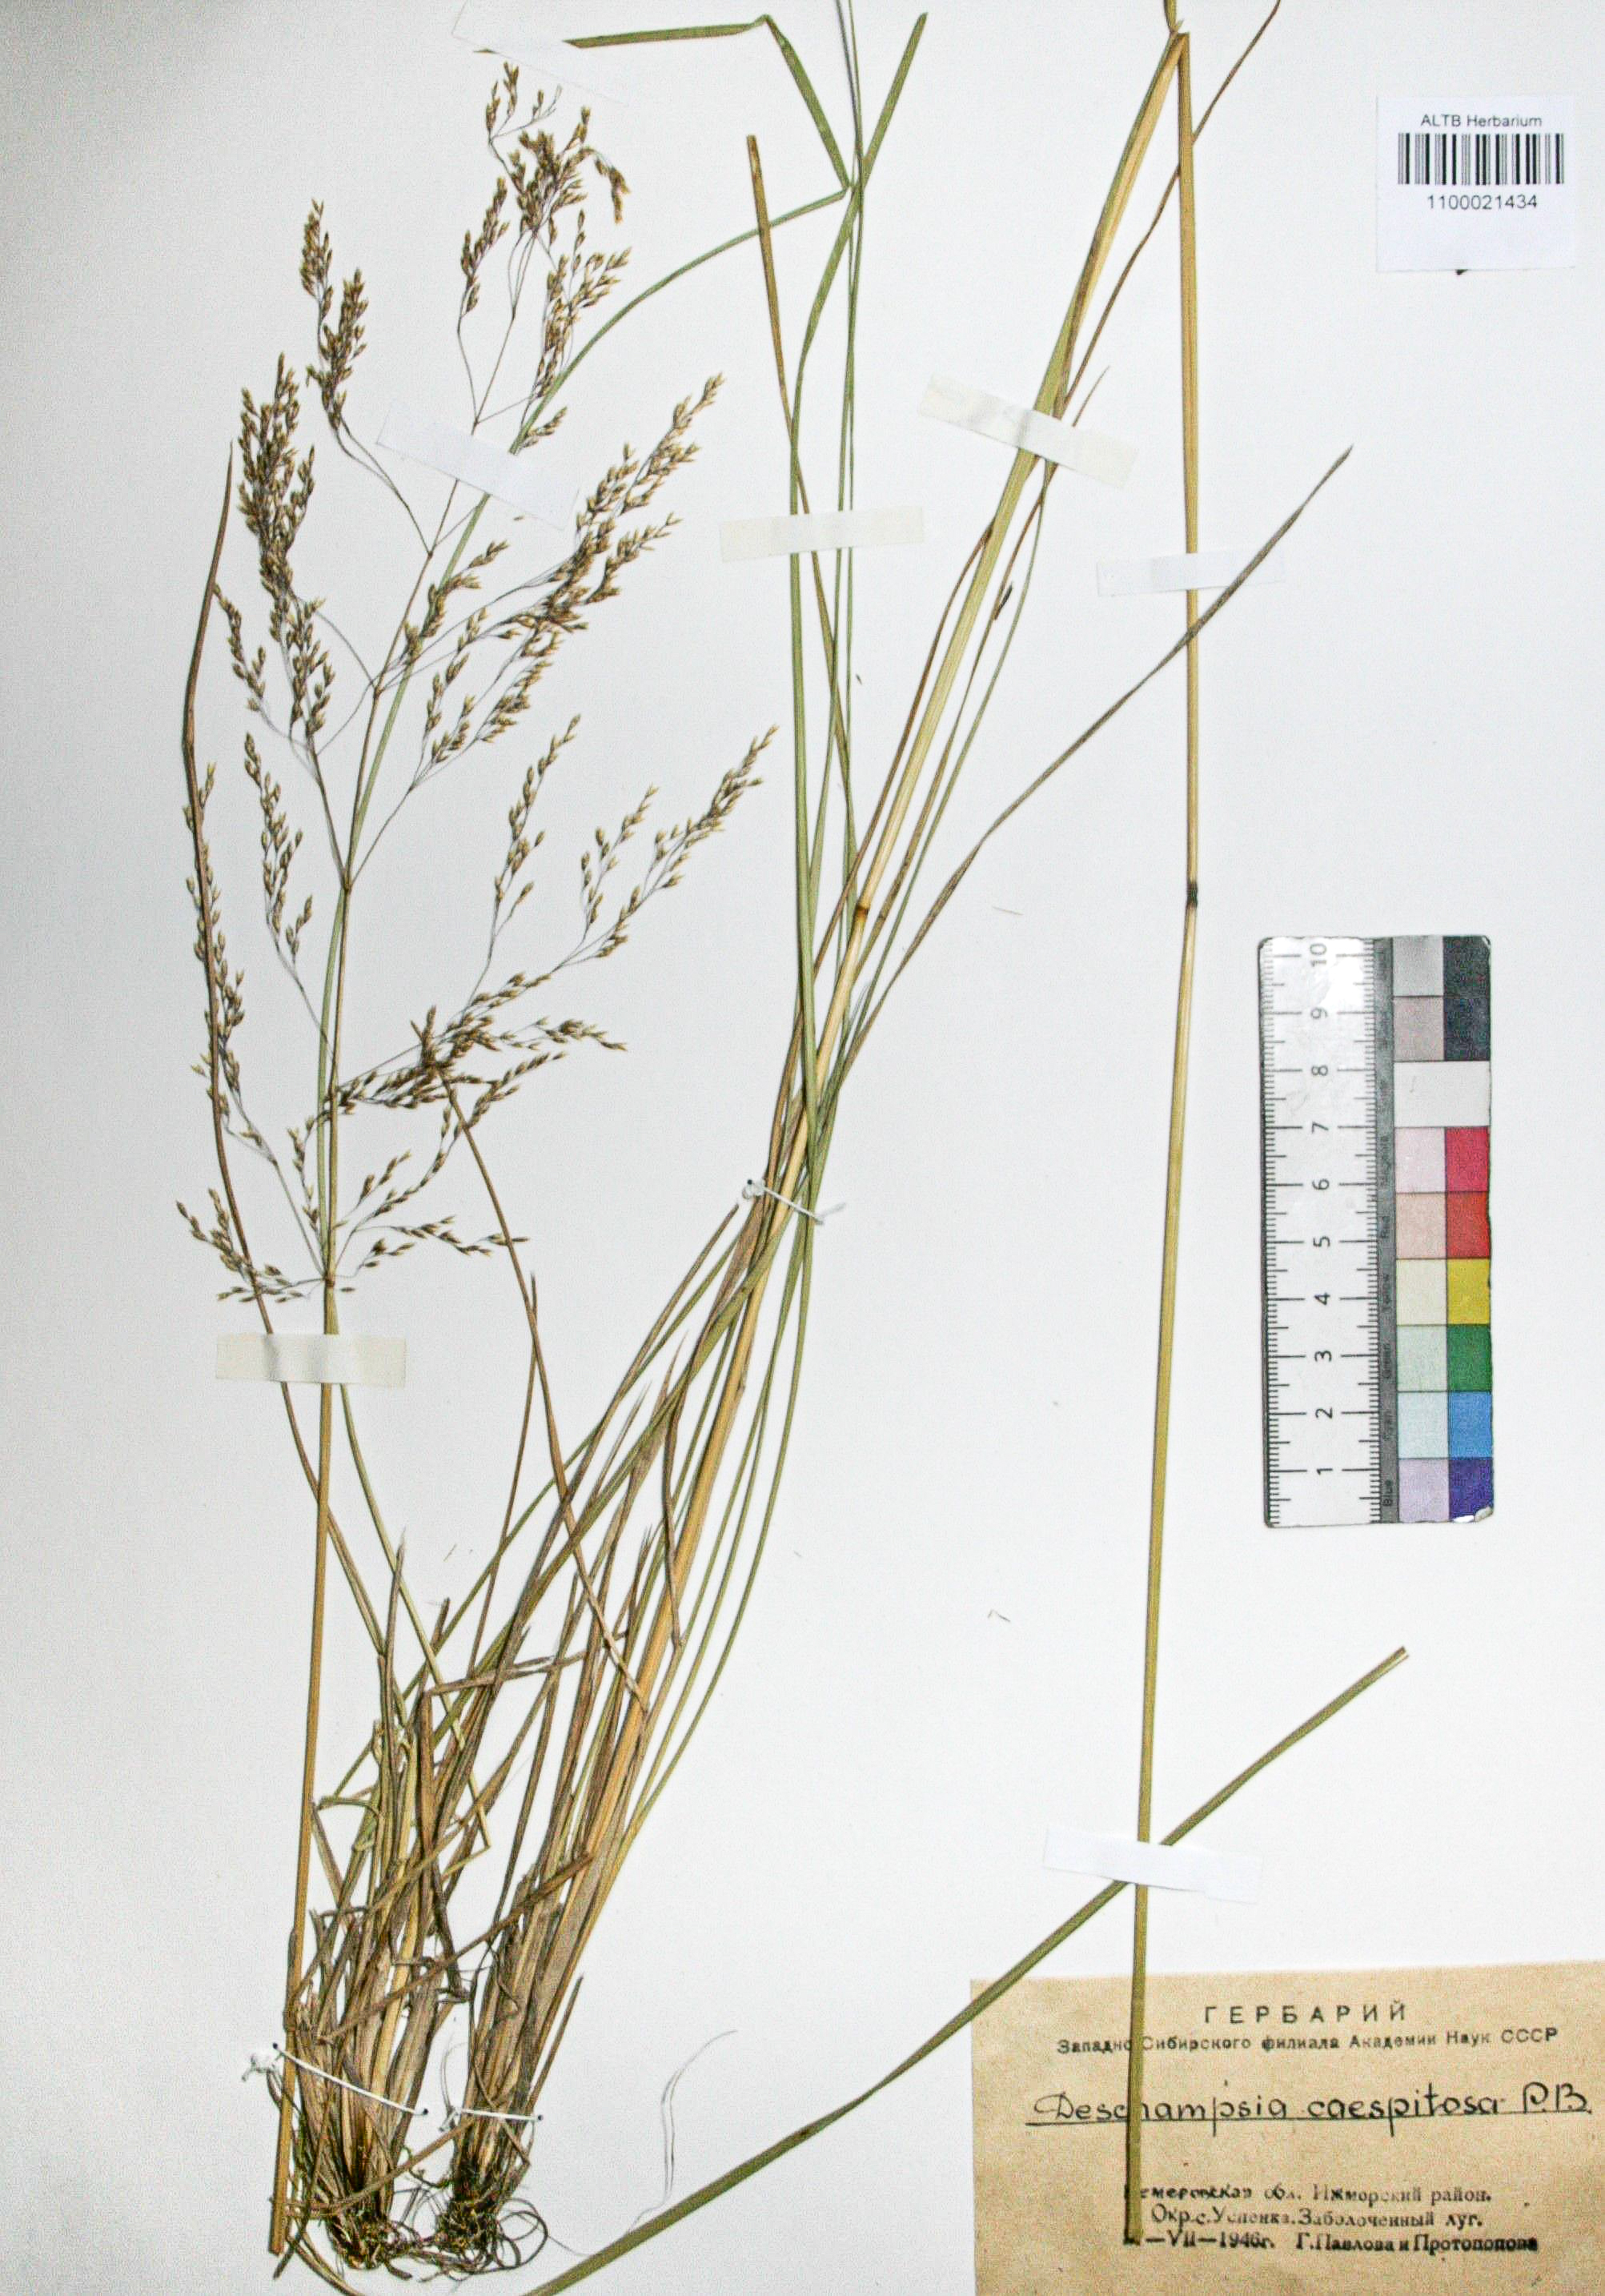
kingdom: Plantae
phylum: Tracheophyta
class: Liliopsida
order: Poales
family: Poaceae
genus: Deschampsia
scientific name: Deschampsia cespitosa
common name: Tufted hair-grass
